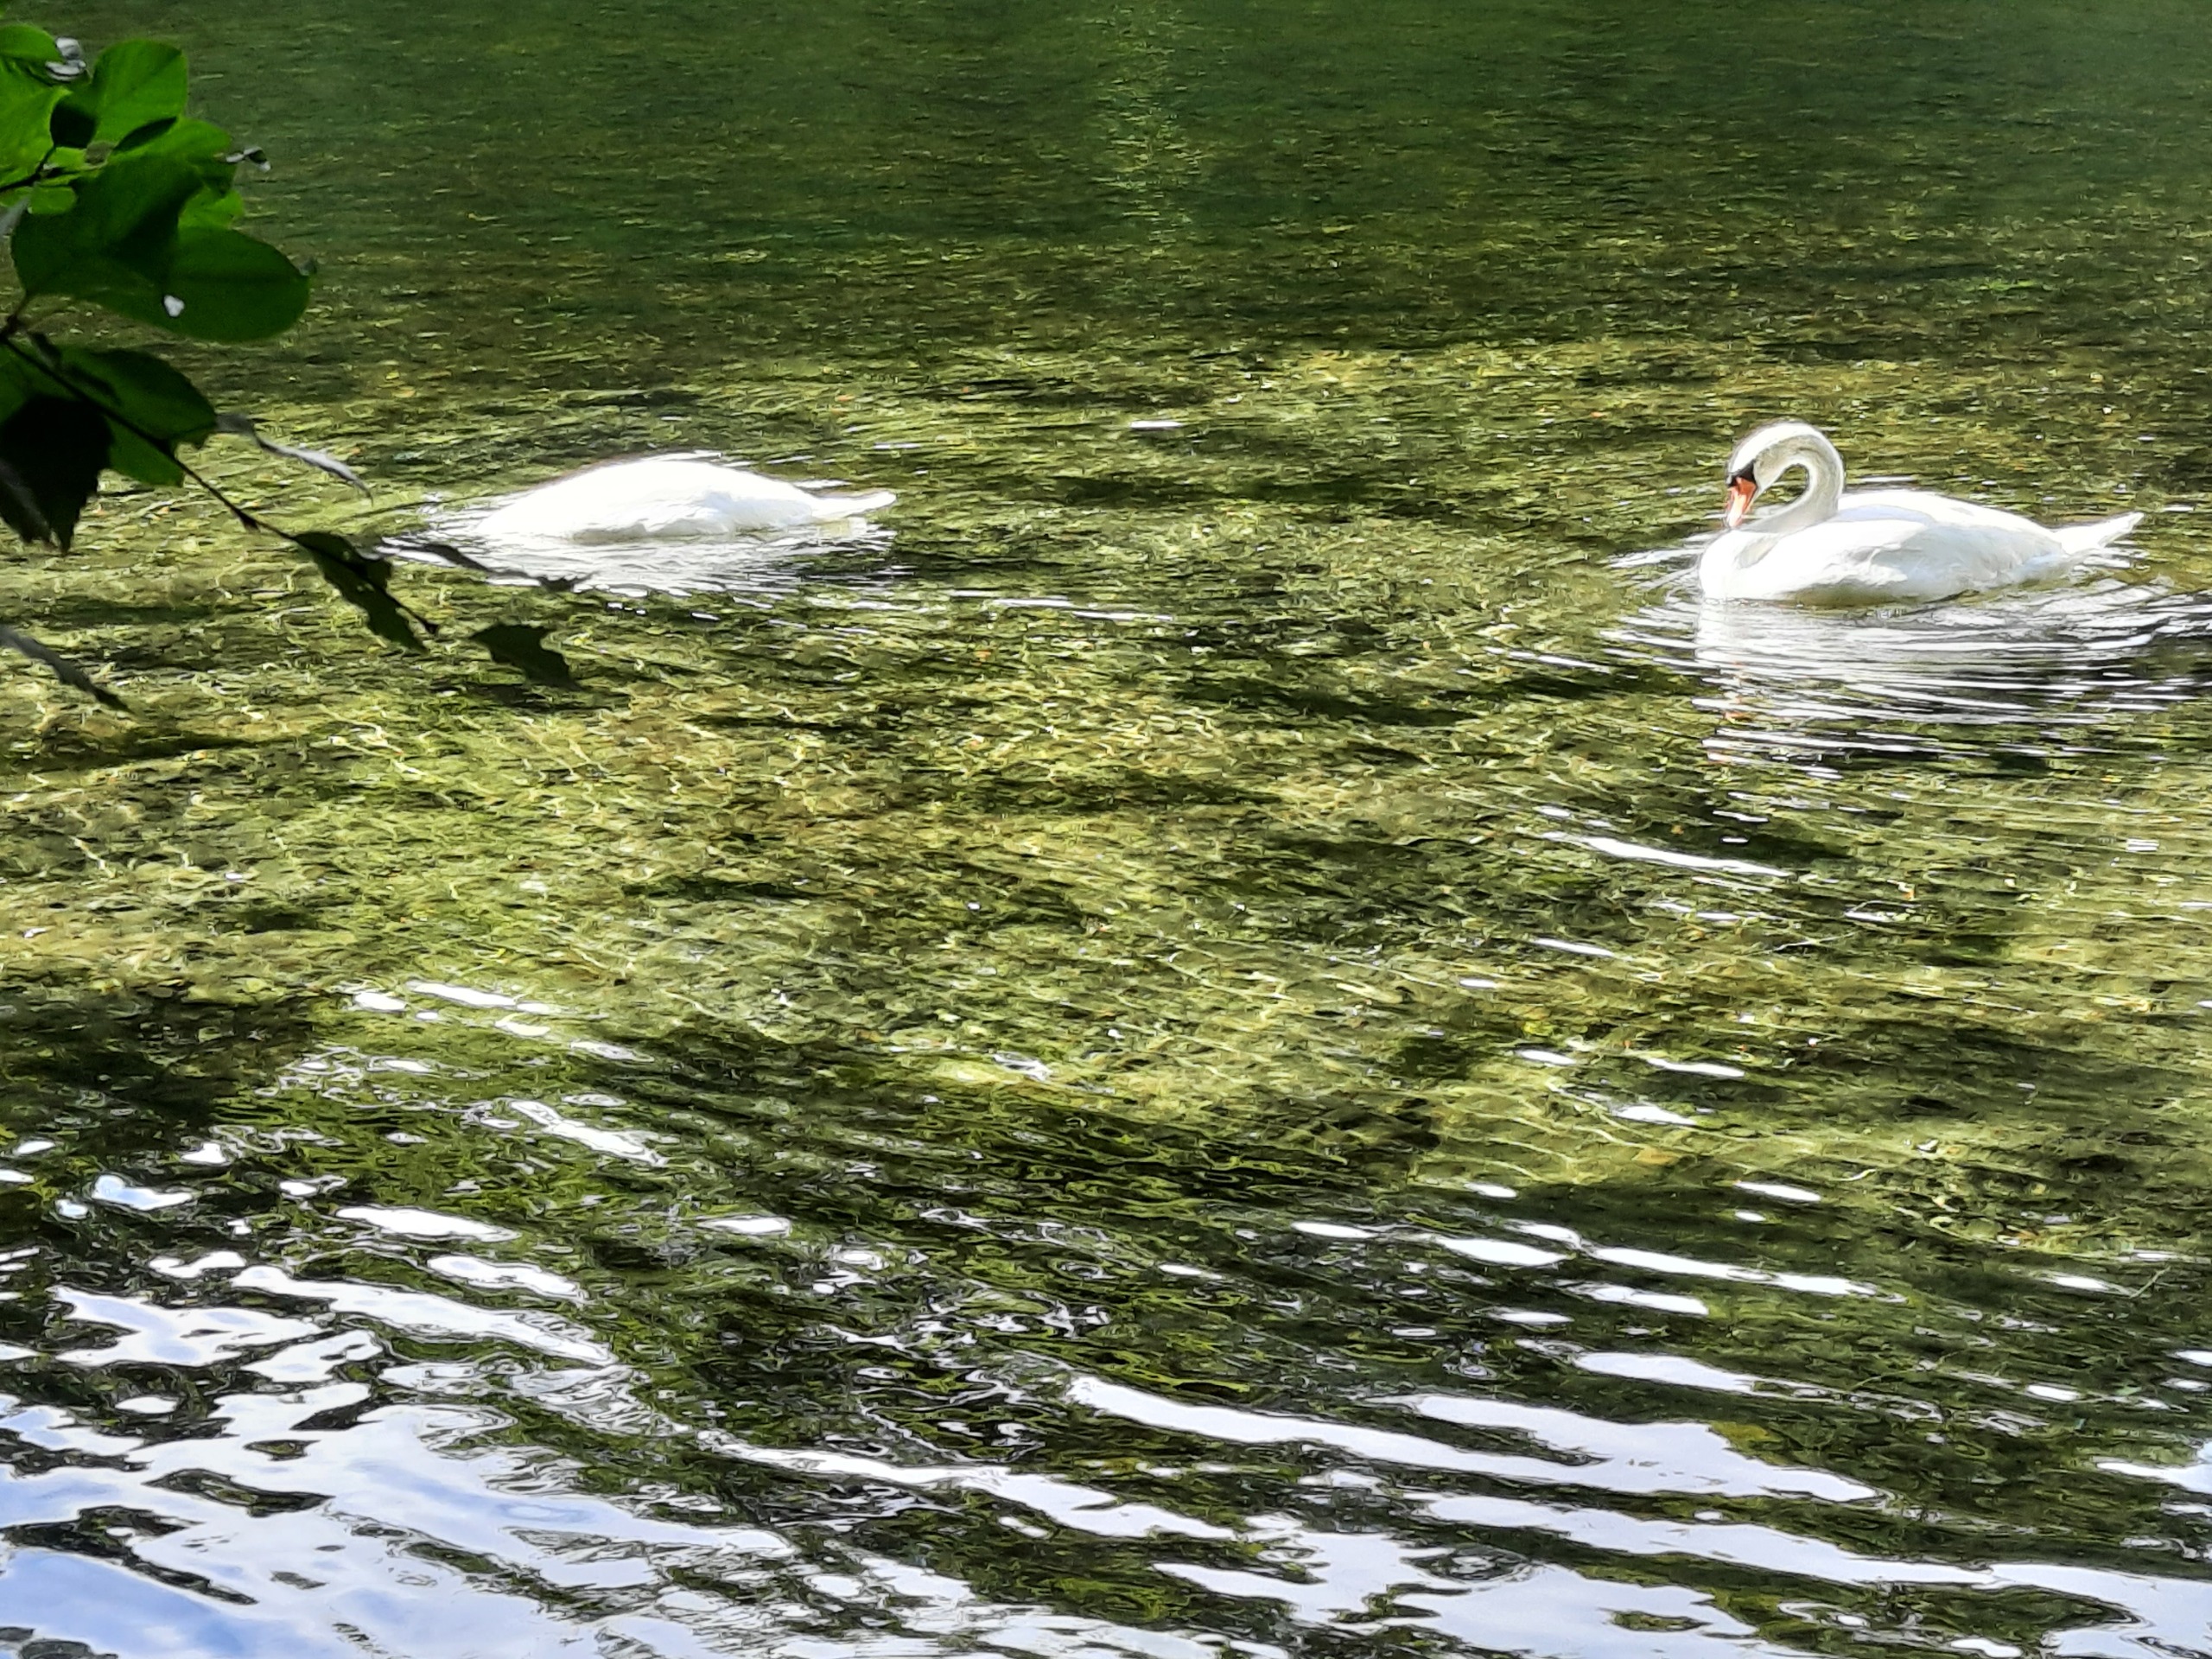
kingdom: Animalia
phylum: Chordata
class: Aves
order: Anseriformes
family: Anatidae
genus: Cygnus
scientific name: Cygnus olor
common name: Knopsvane
